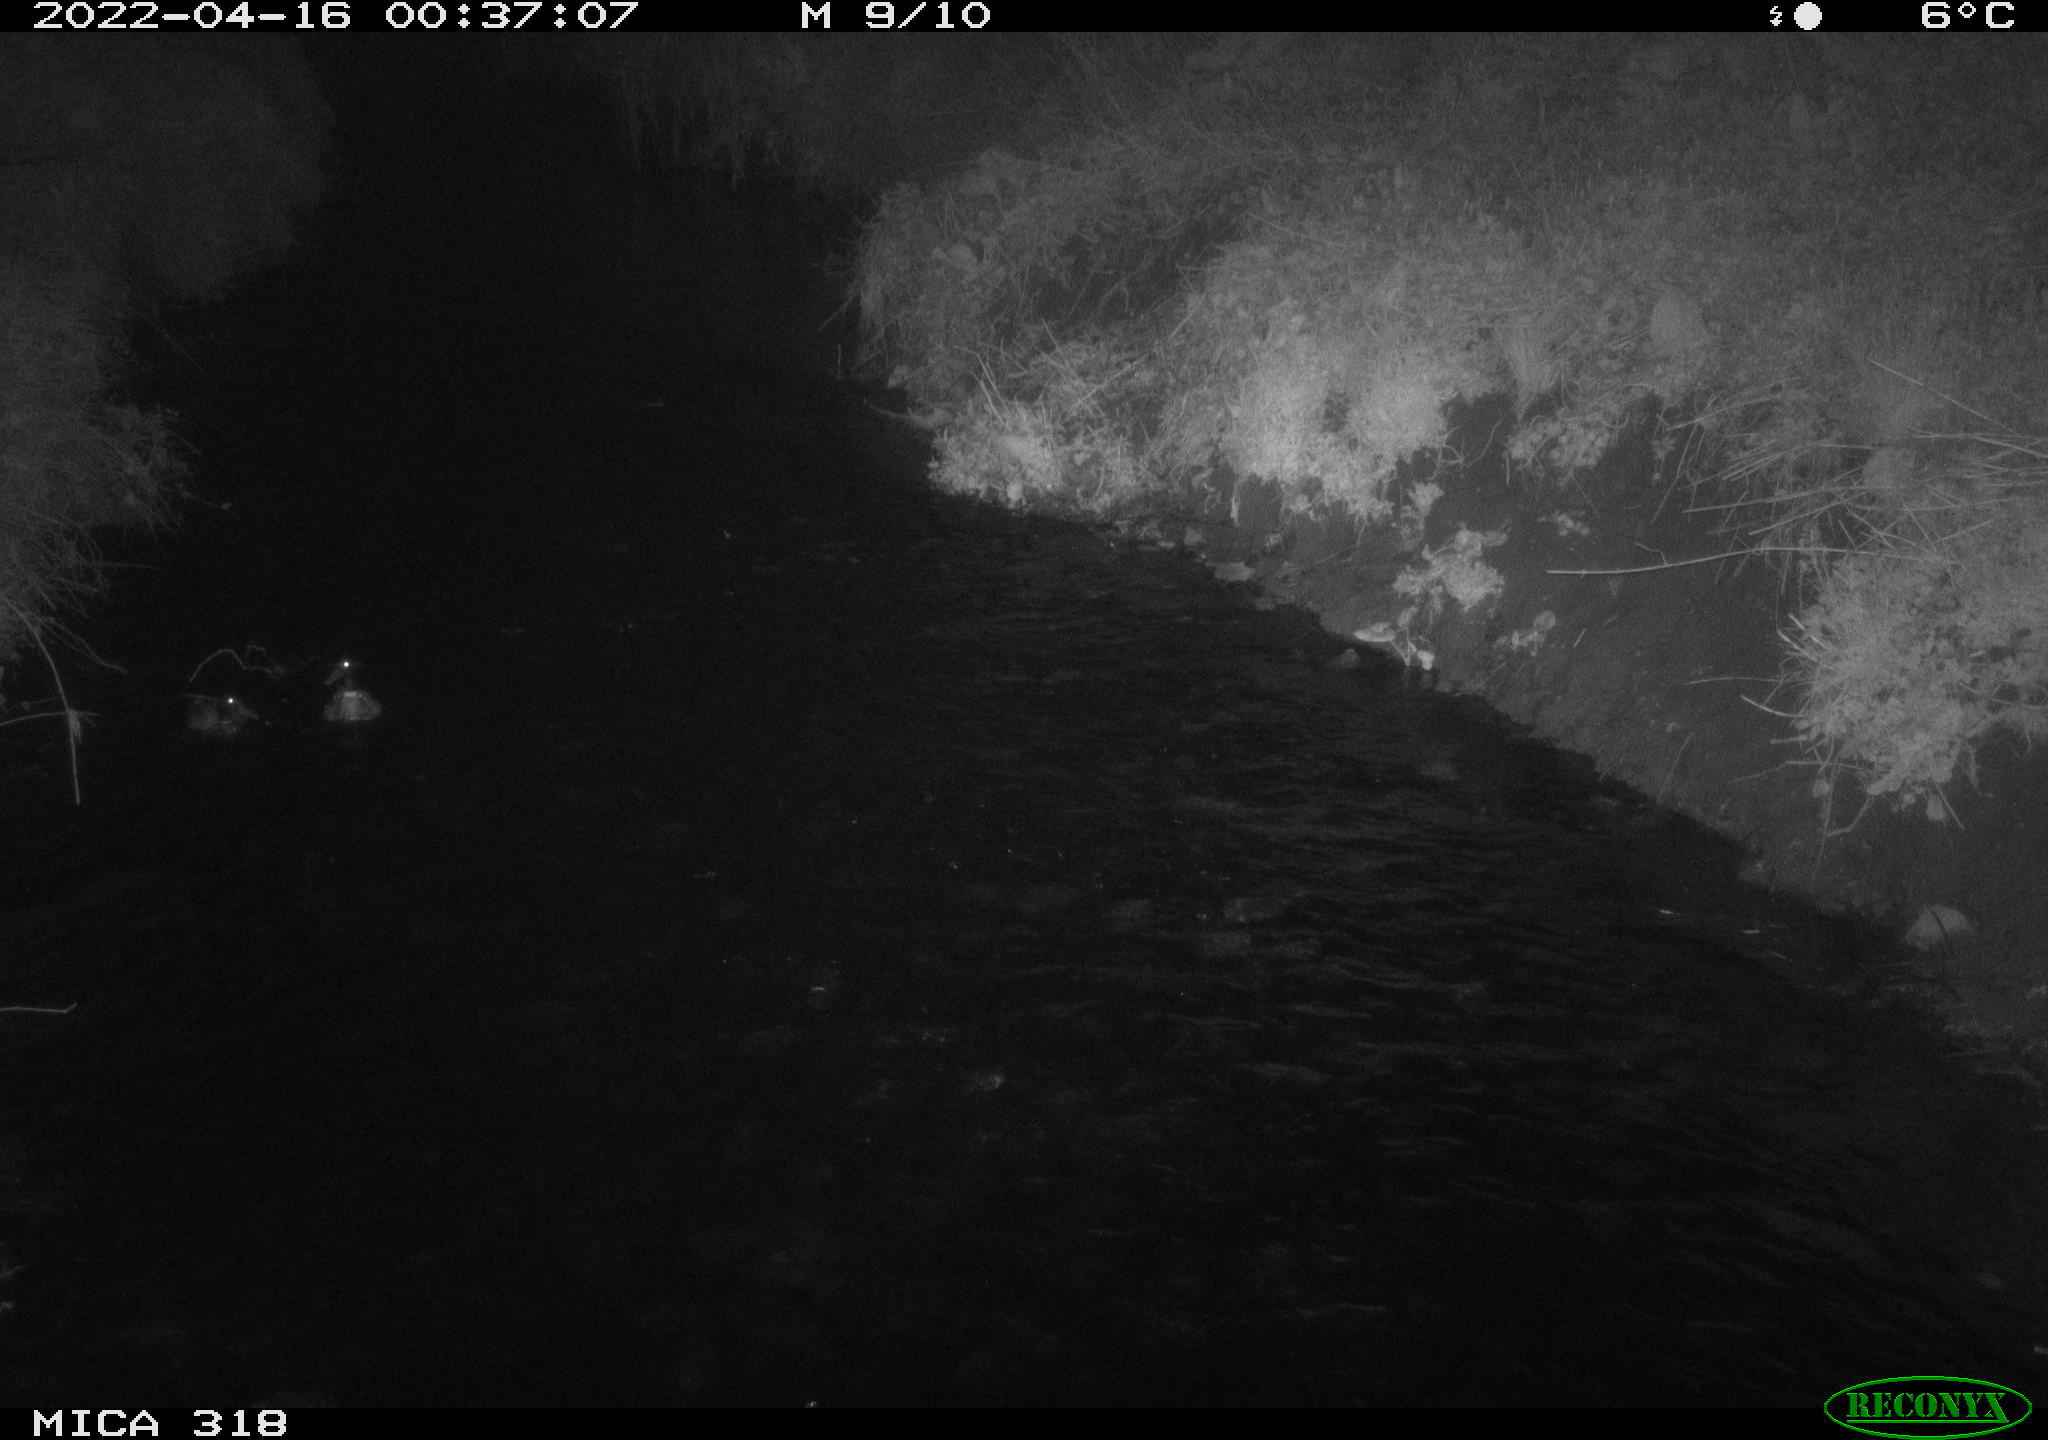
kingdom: Animalia
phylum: Chordata
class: Aves
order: Anseriformes
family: Anatidae
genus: Anas
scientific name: Anas platyrhynchos
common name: Mallard
